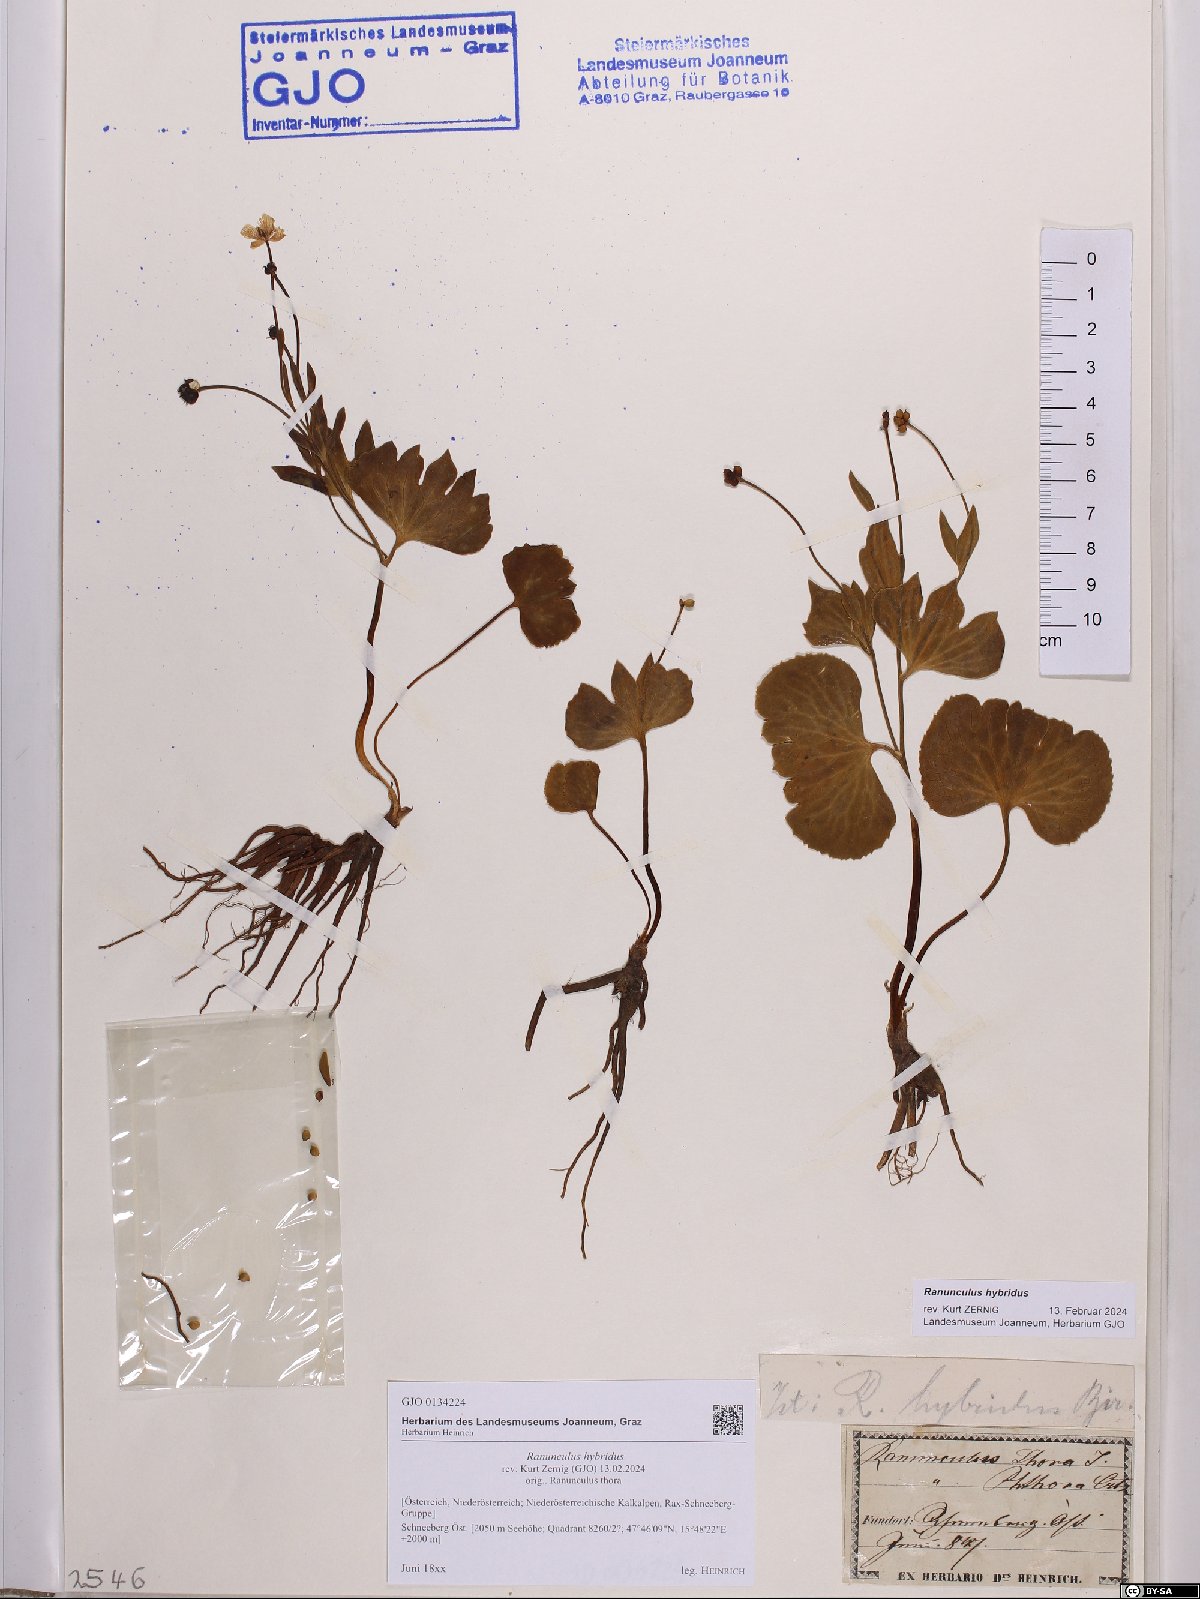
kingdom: Plantae
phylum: Tracheophyta
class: Magnoliopsida
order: Ranunculales
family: Ranunculaceae
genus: Ranunculus
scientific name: Ranunculus hybridus
